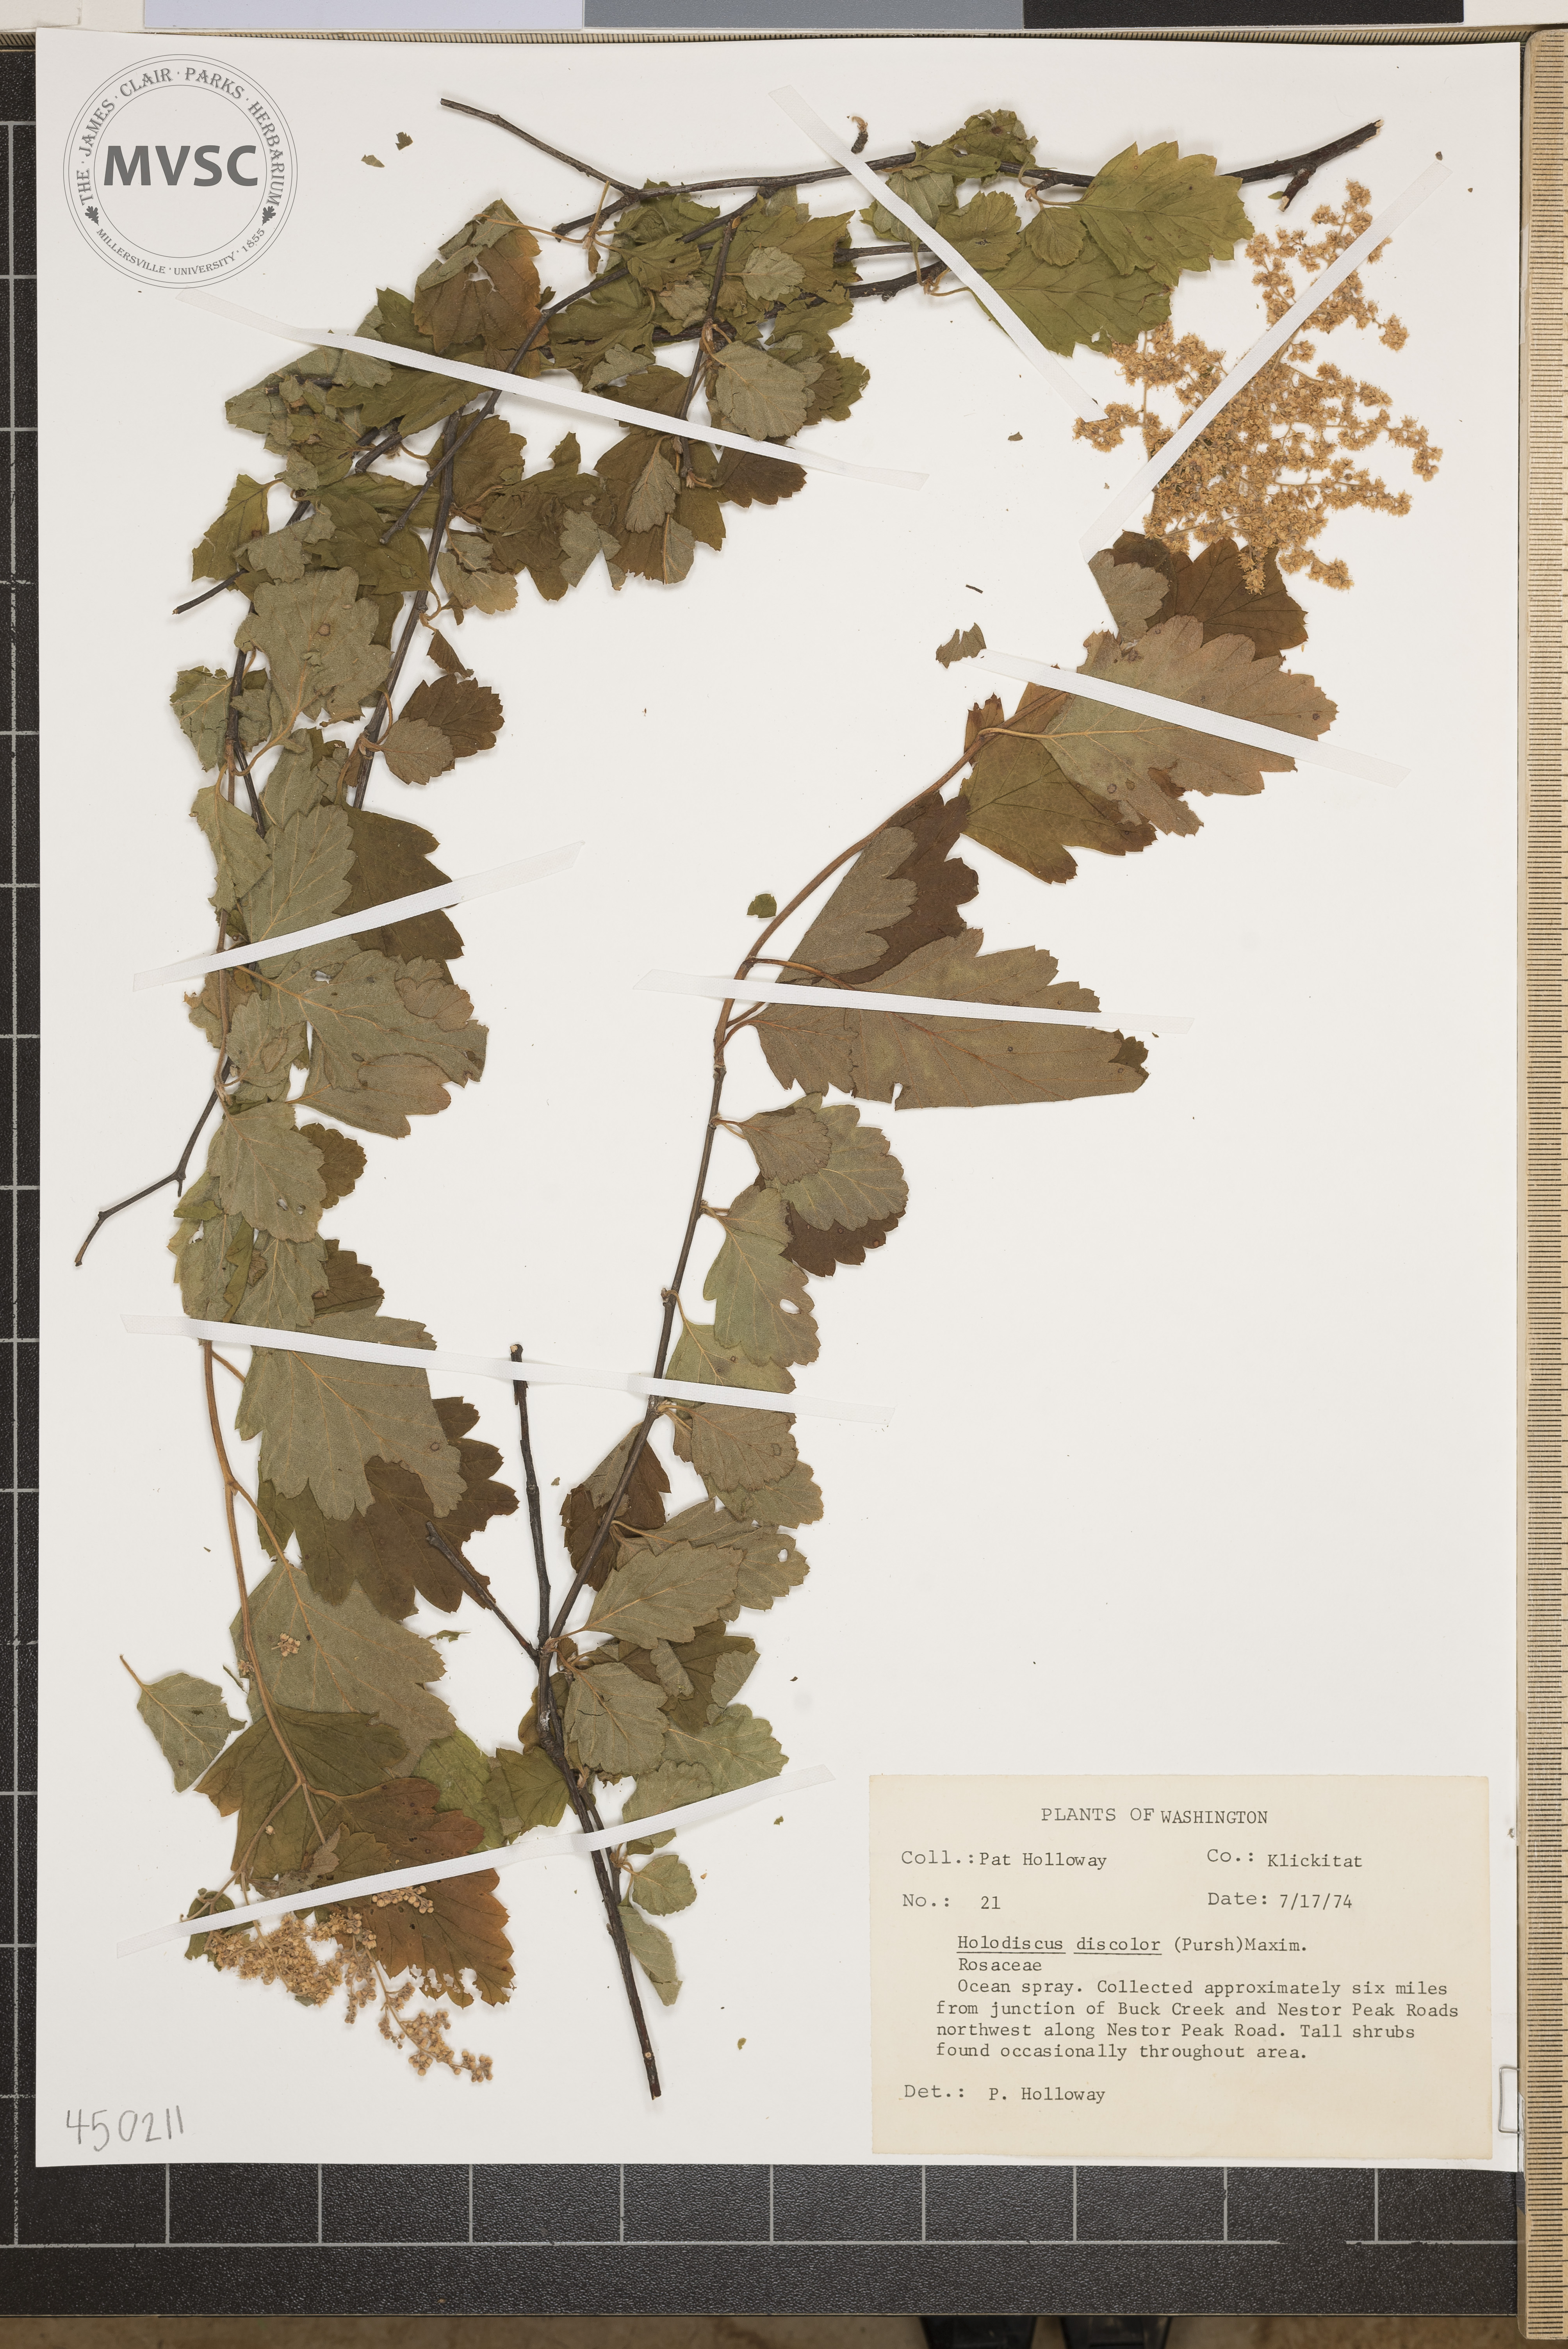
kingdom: Plantae
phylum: Tracheophyta
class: Magnoliopsida
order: Rosales
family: Rosaceae
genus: Holodiscus
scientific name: Holodiscus discolor
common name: ocean spray
